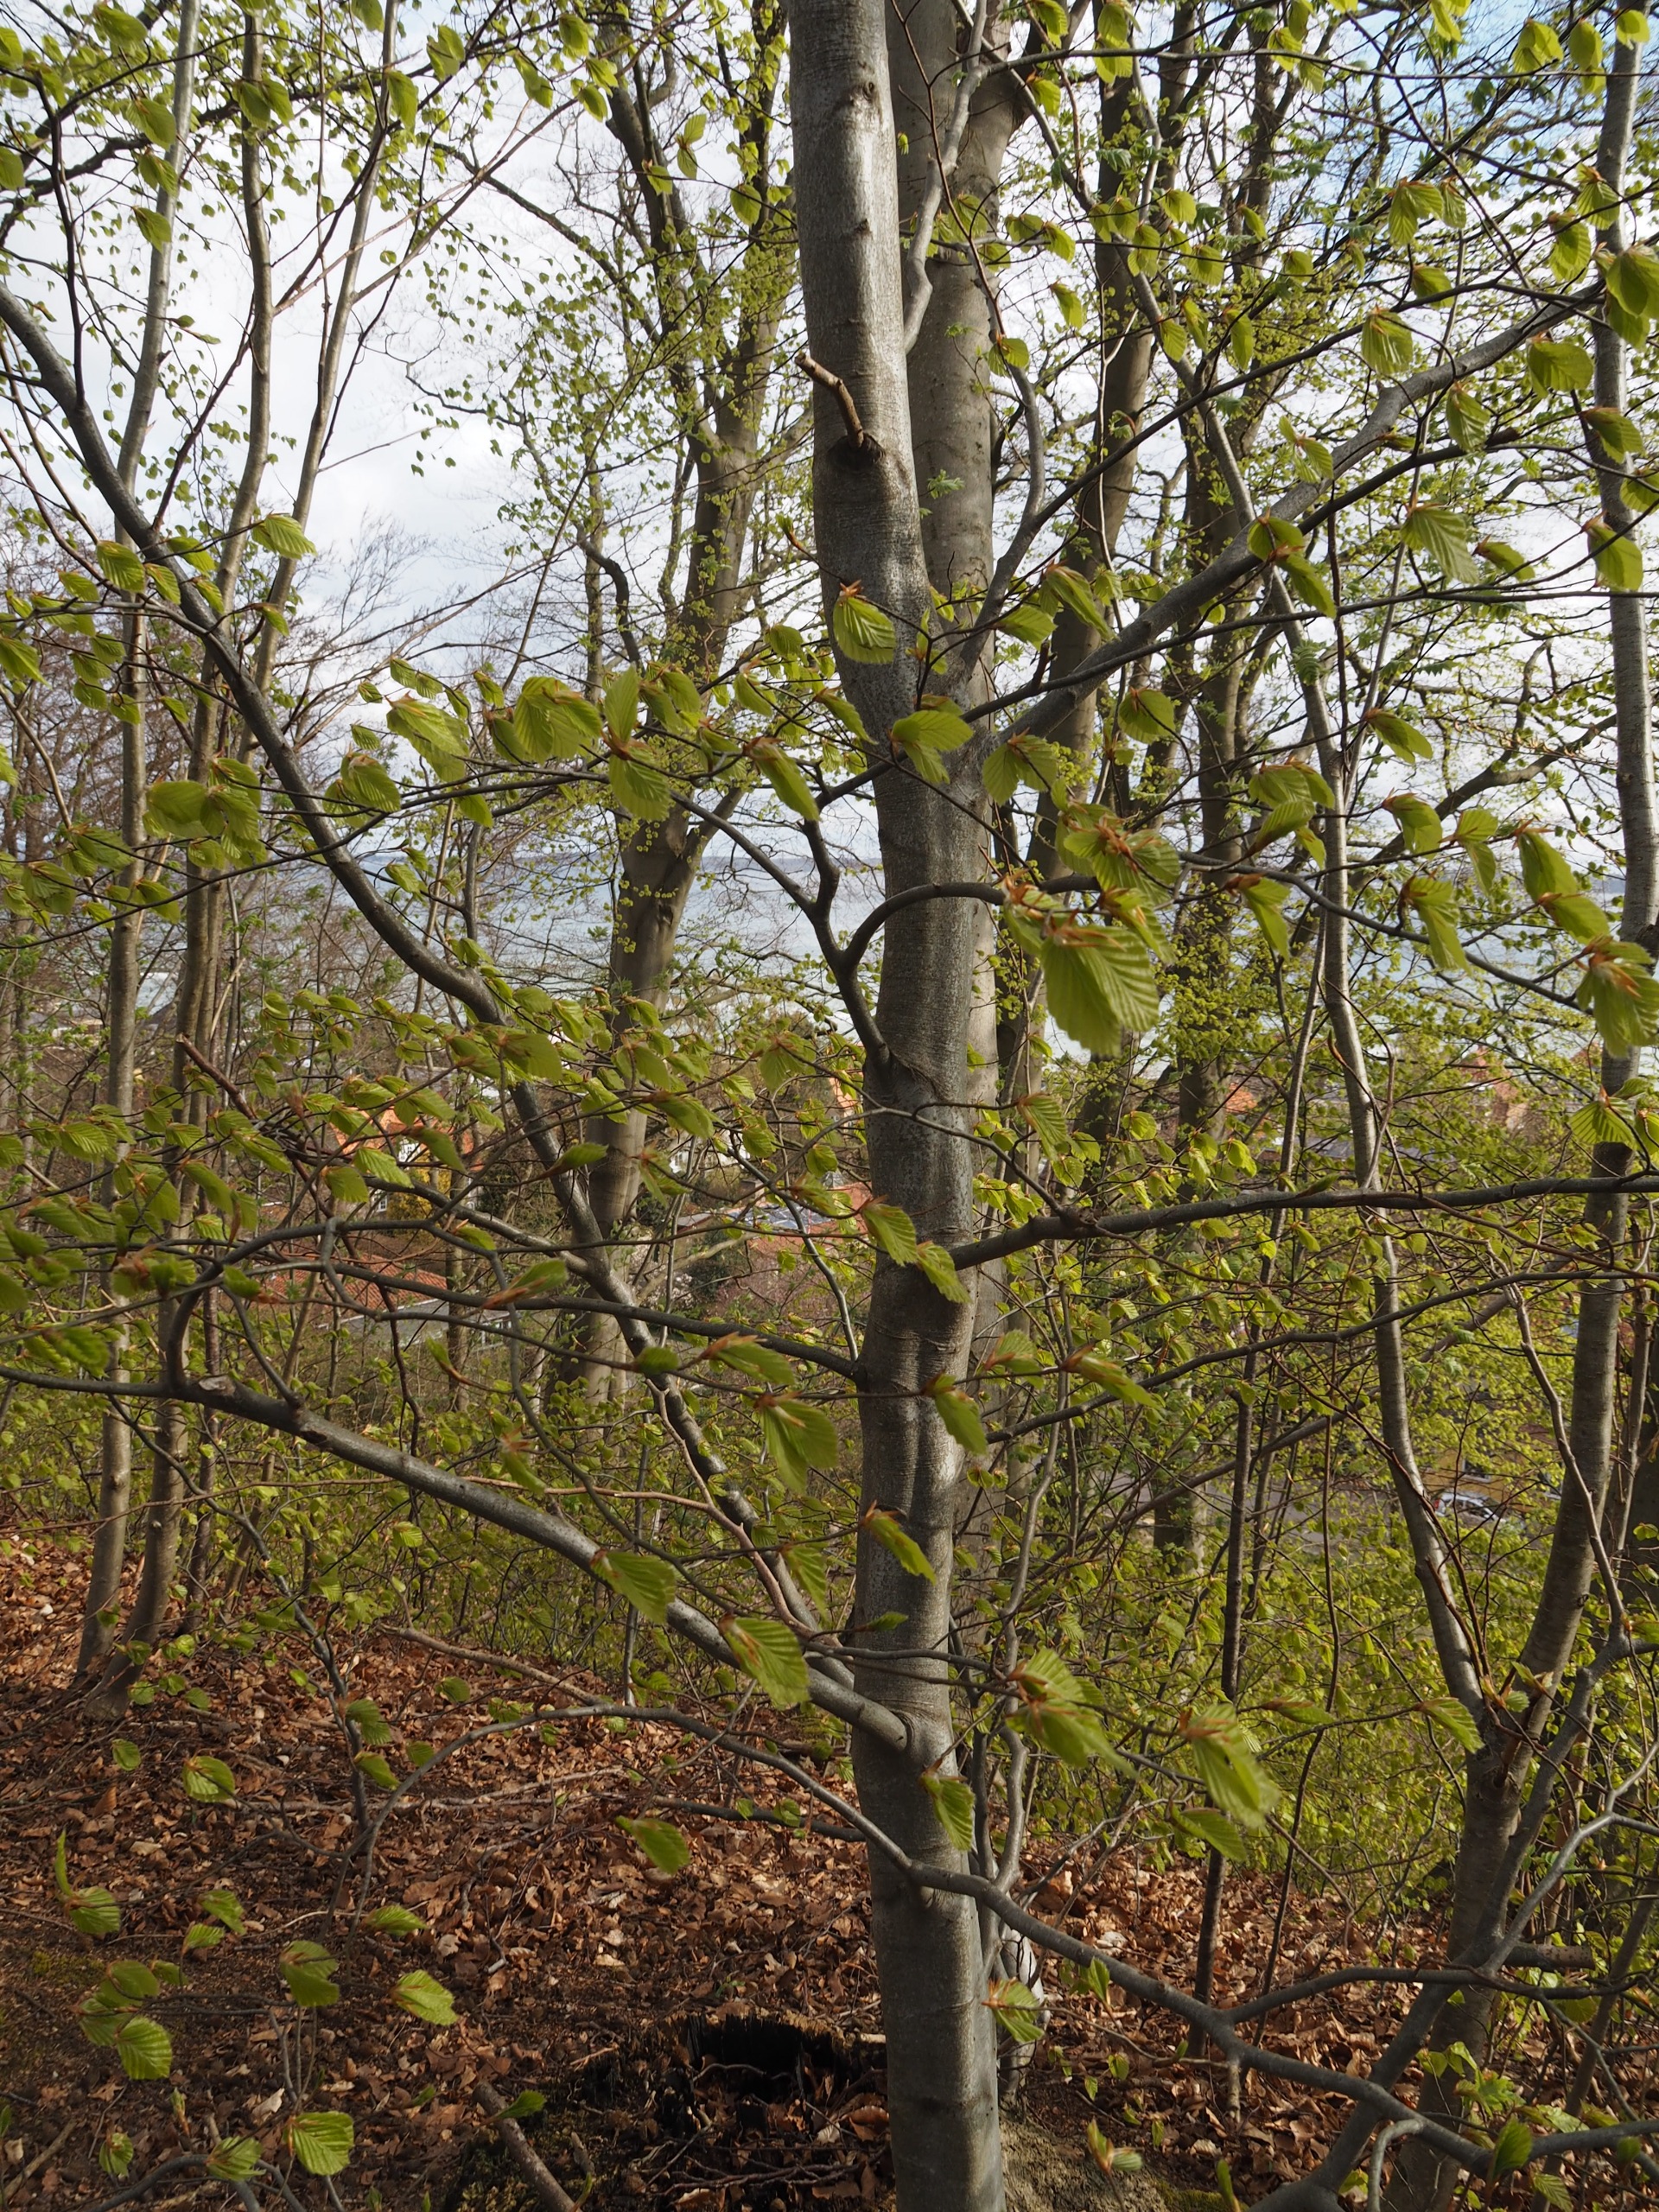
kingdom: Plantae
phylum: Tracheophyta
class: Magnoliopsida
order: Fagales
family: Fagaceae
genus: Fagus
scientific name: Fagus sylvatica
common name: Bøg
